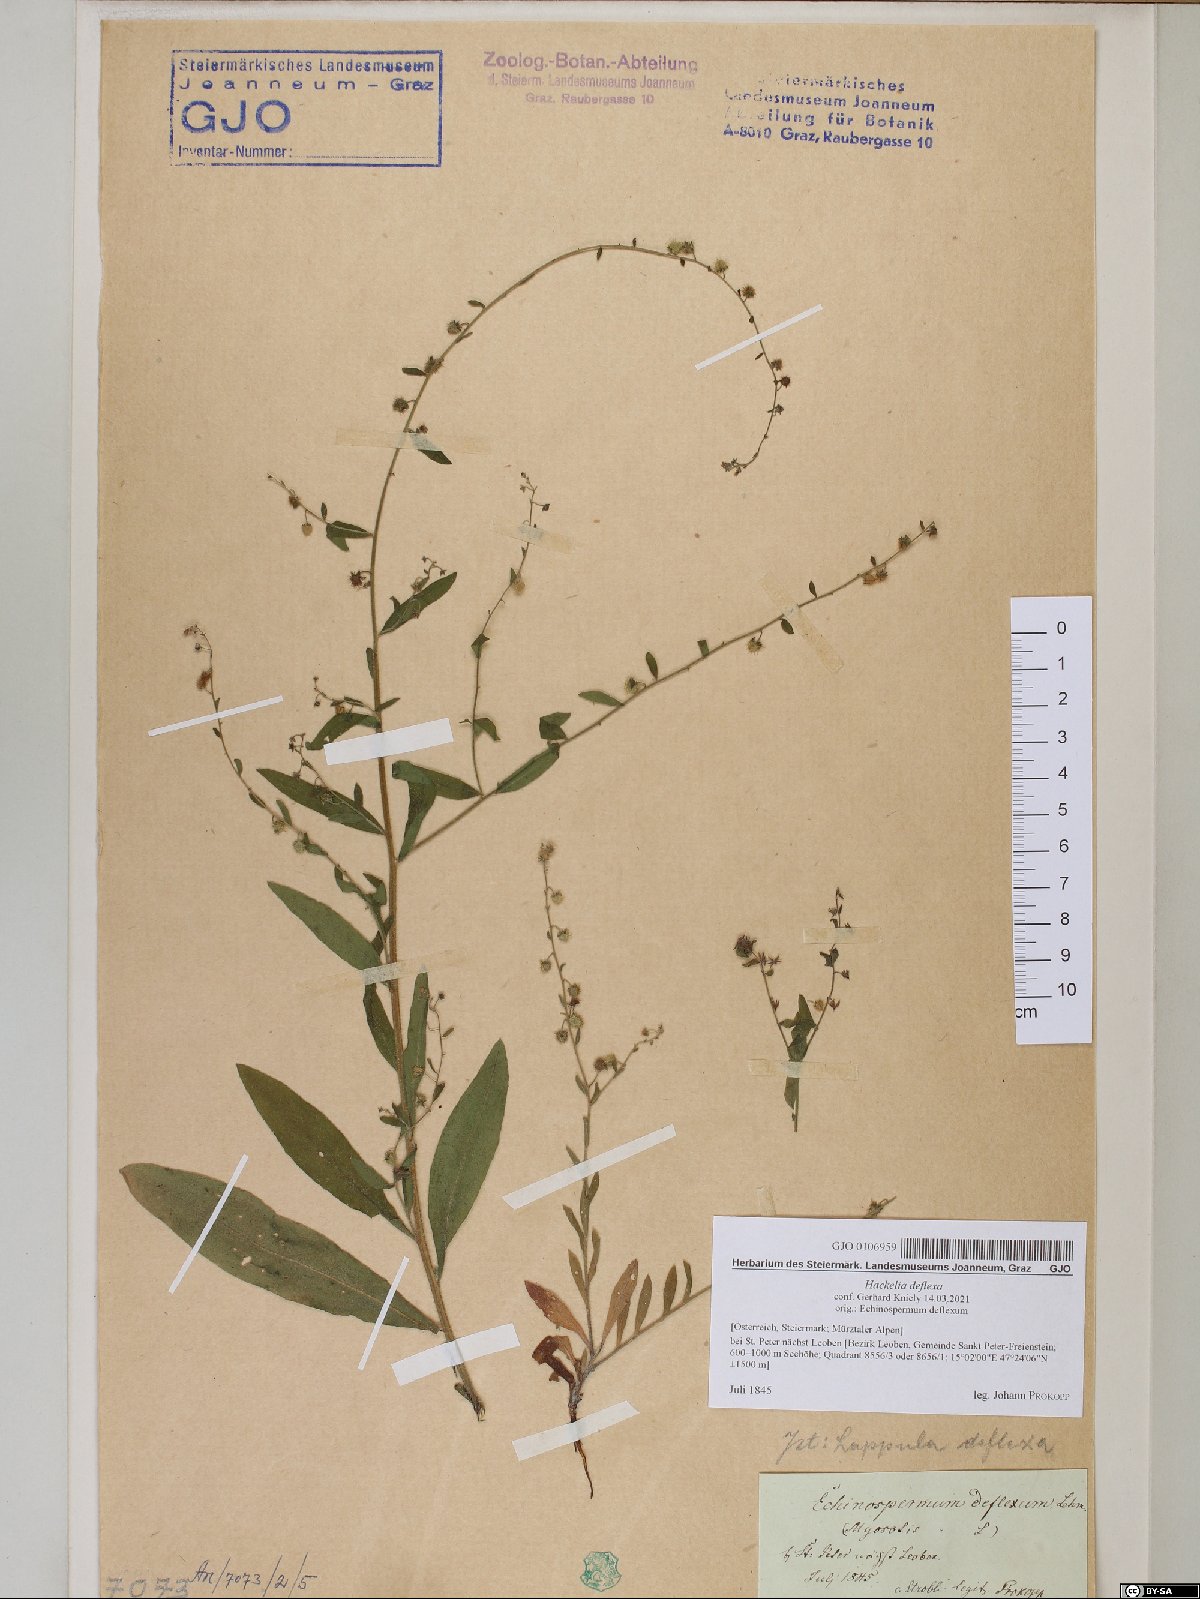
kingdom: Plantae
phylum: Tracheophyta
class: Magnoliopsida
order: Boraginales
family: Boraginaceae
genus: Hackelia
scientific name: Hackelia deflexa
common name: Nodding stickseed
